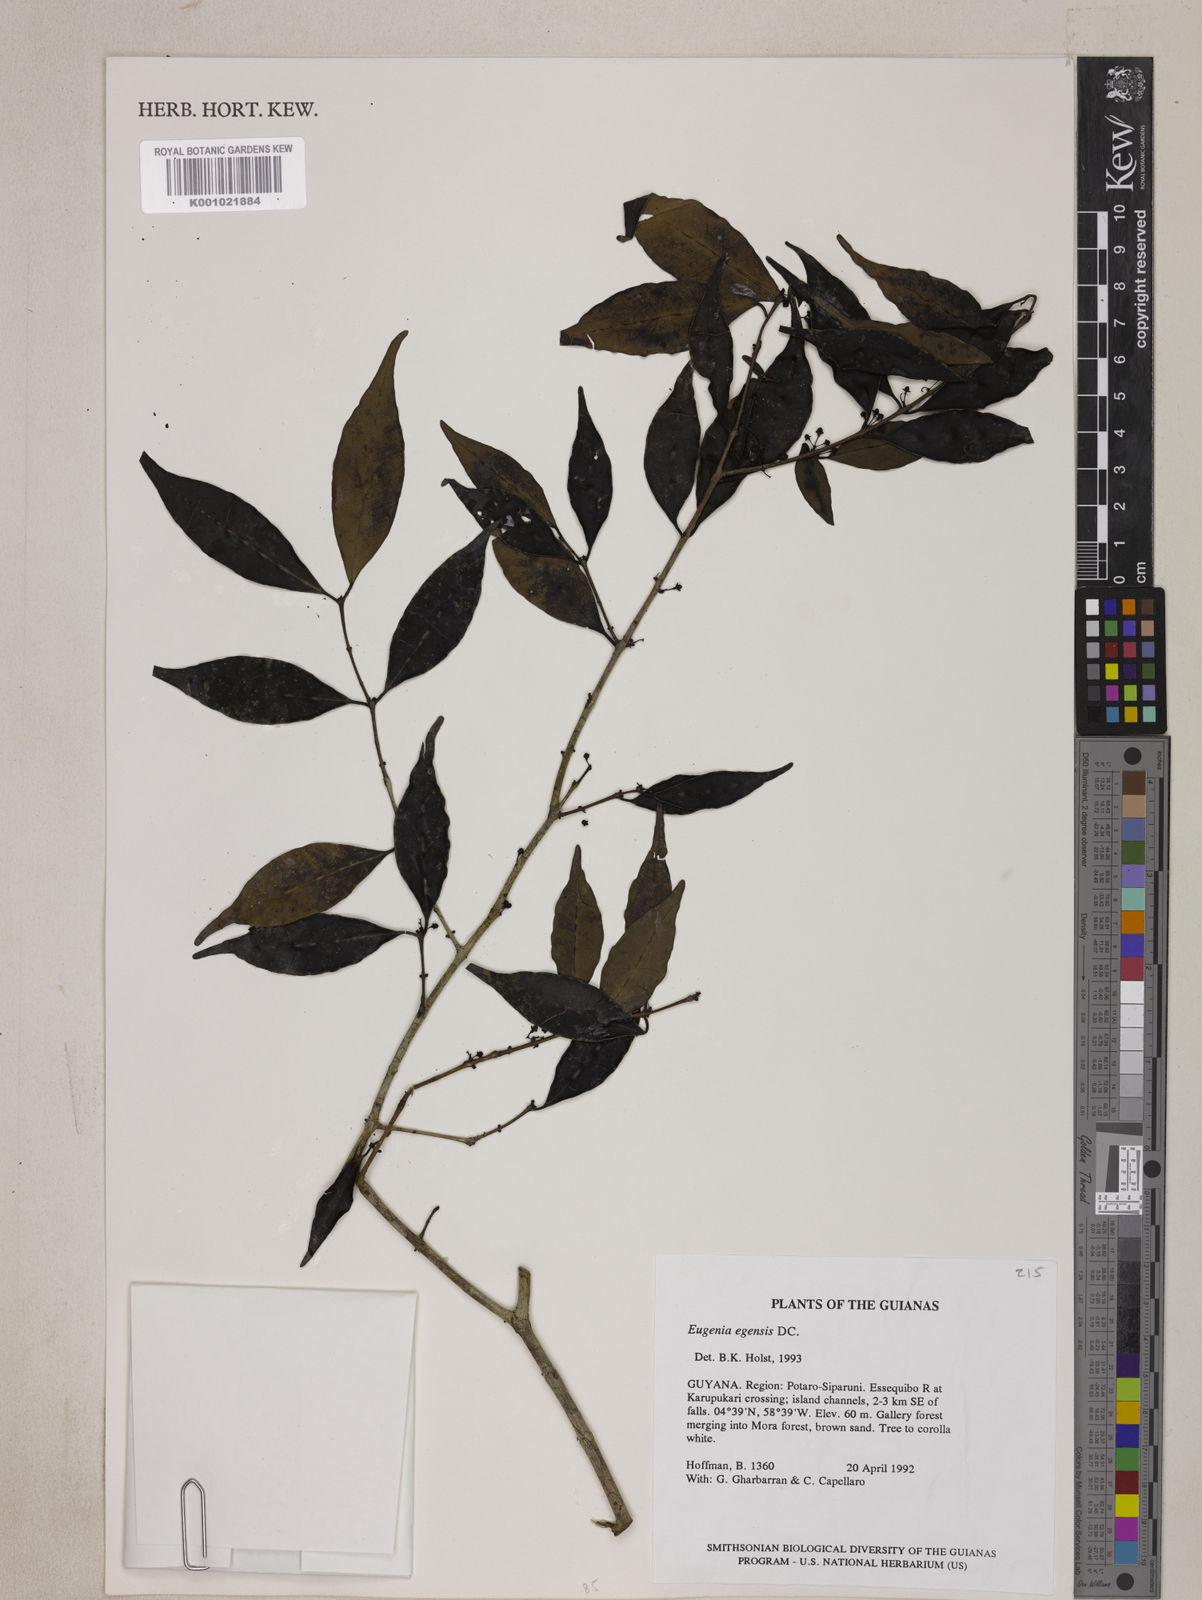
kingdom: Plantae
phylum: Tracheophyta
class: Magnoliopsida
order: Myrtales
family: Myrtaceae
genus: Eugenia
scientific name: Eugenia egensis
